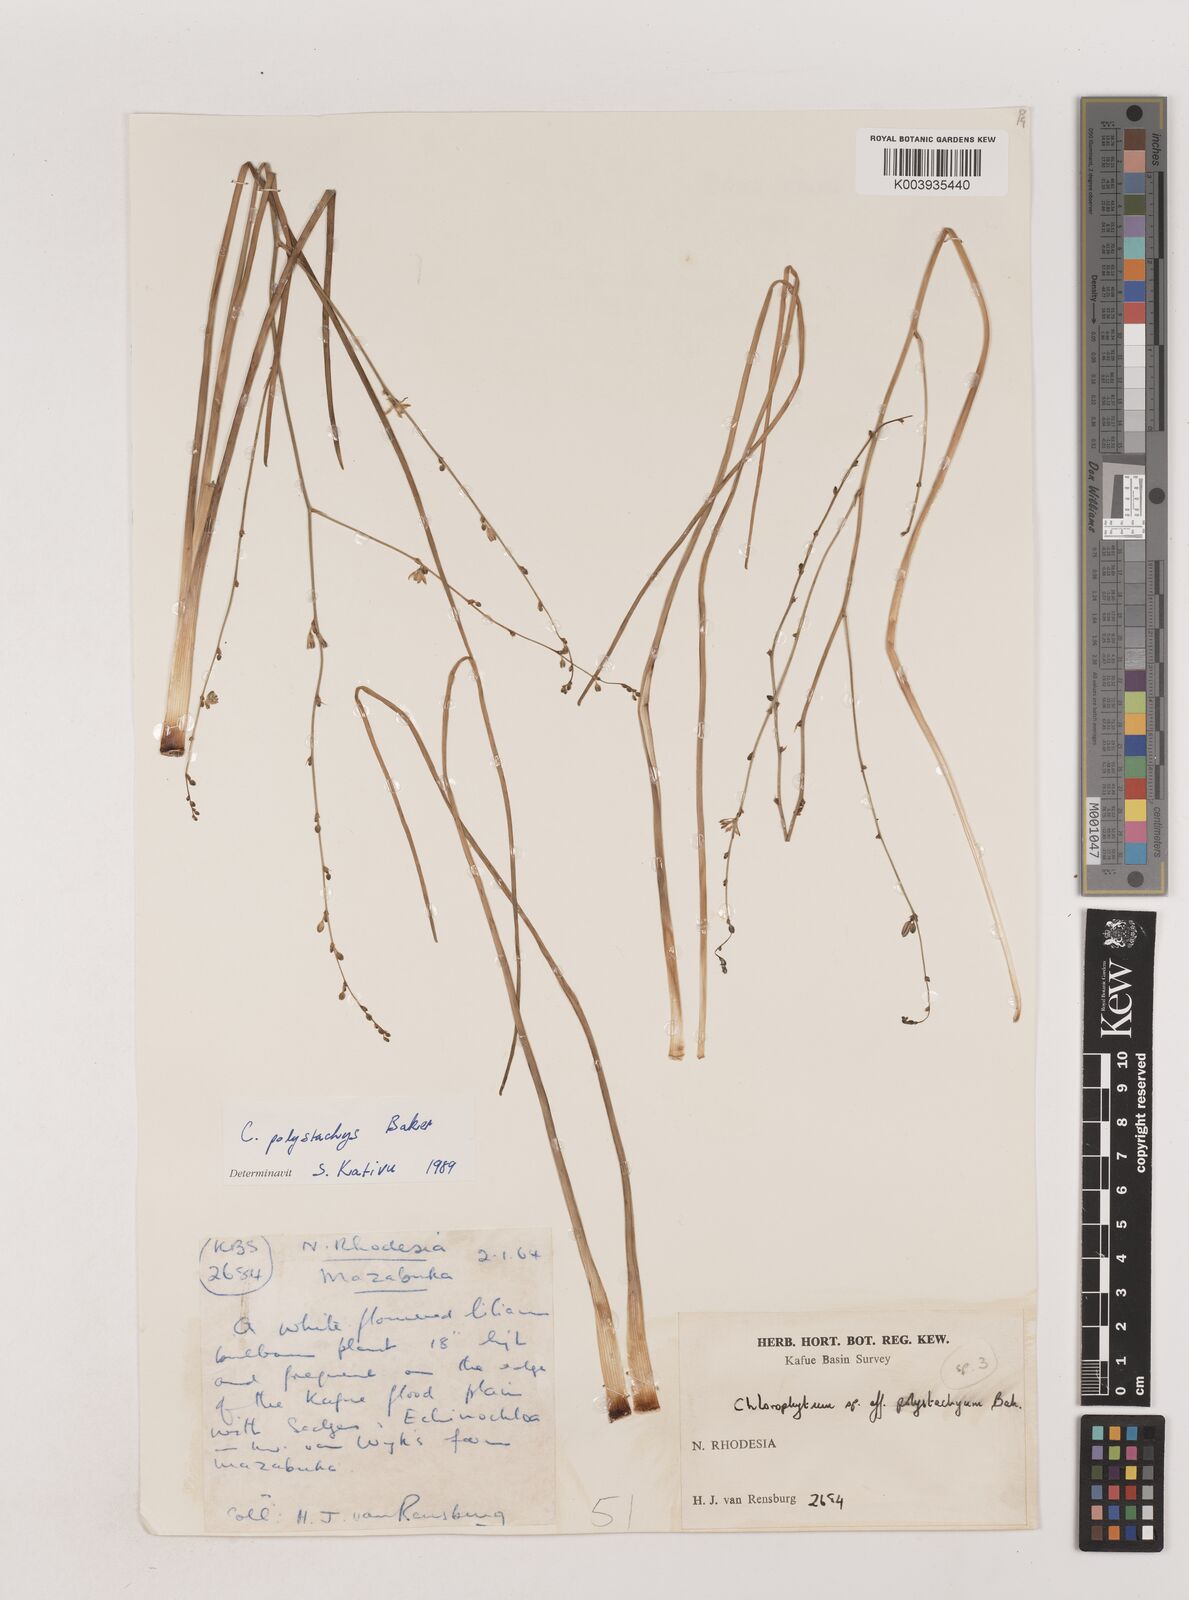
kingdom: Plantae
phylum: Tracheophyta
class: Liliopsida
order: Asparagales
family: Asparagaceae
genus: Chlorophytum
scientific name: Chlorophytum polystachys
